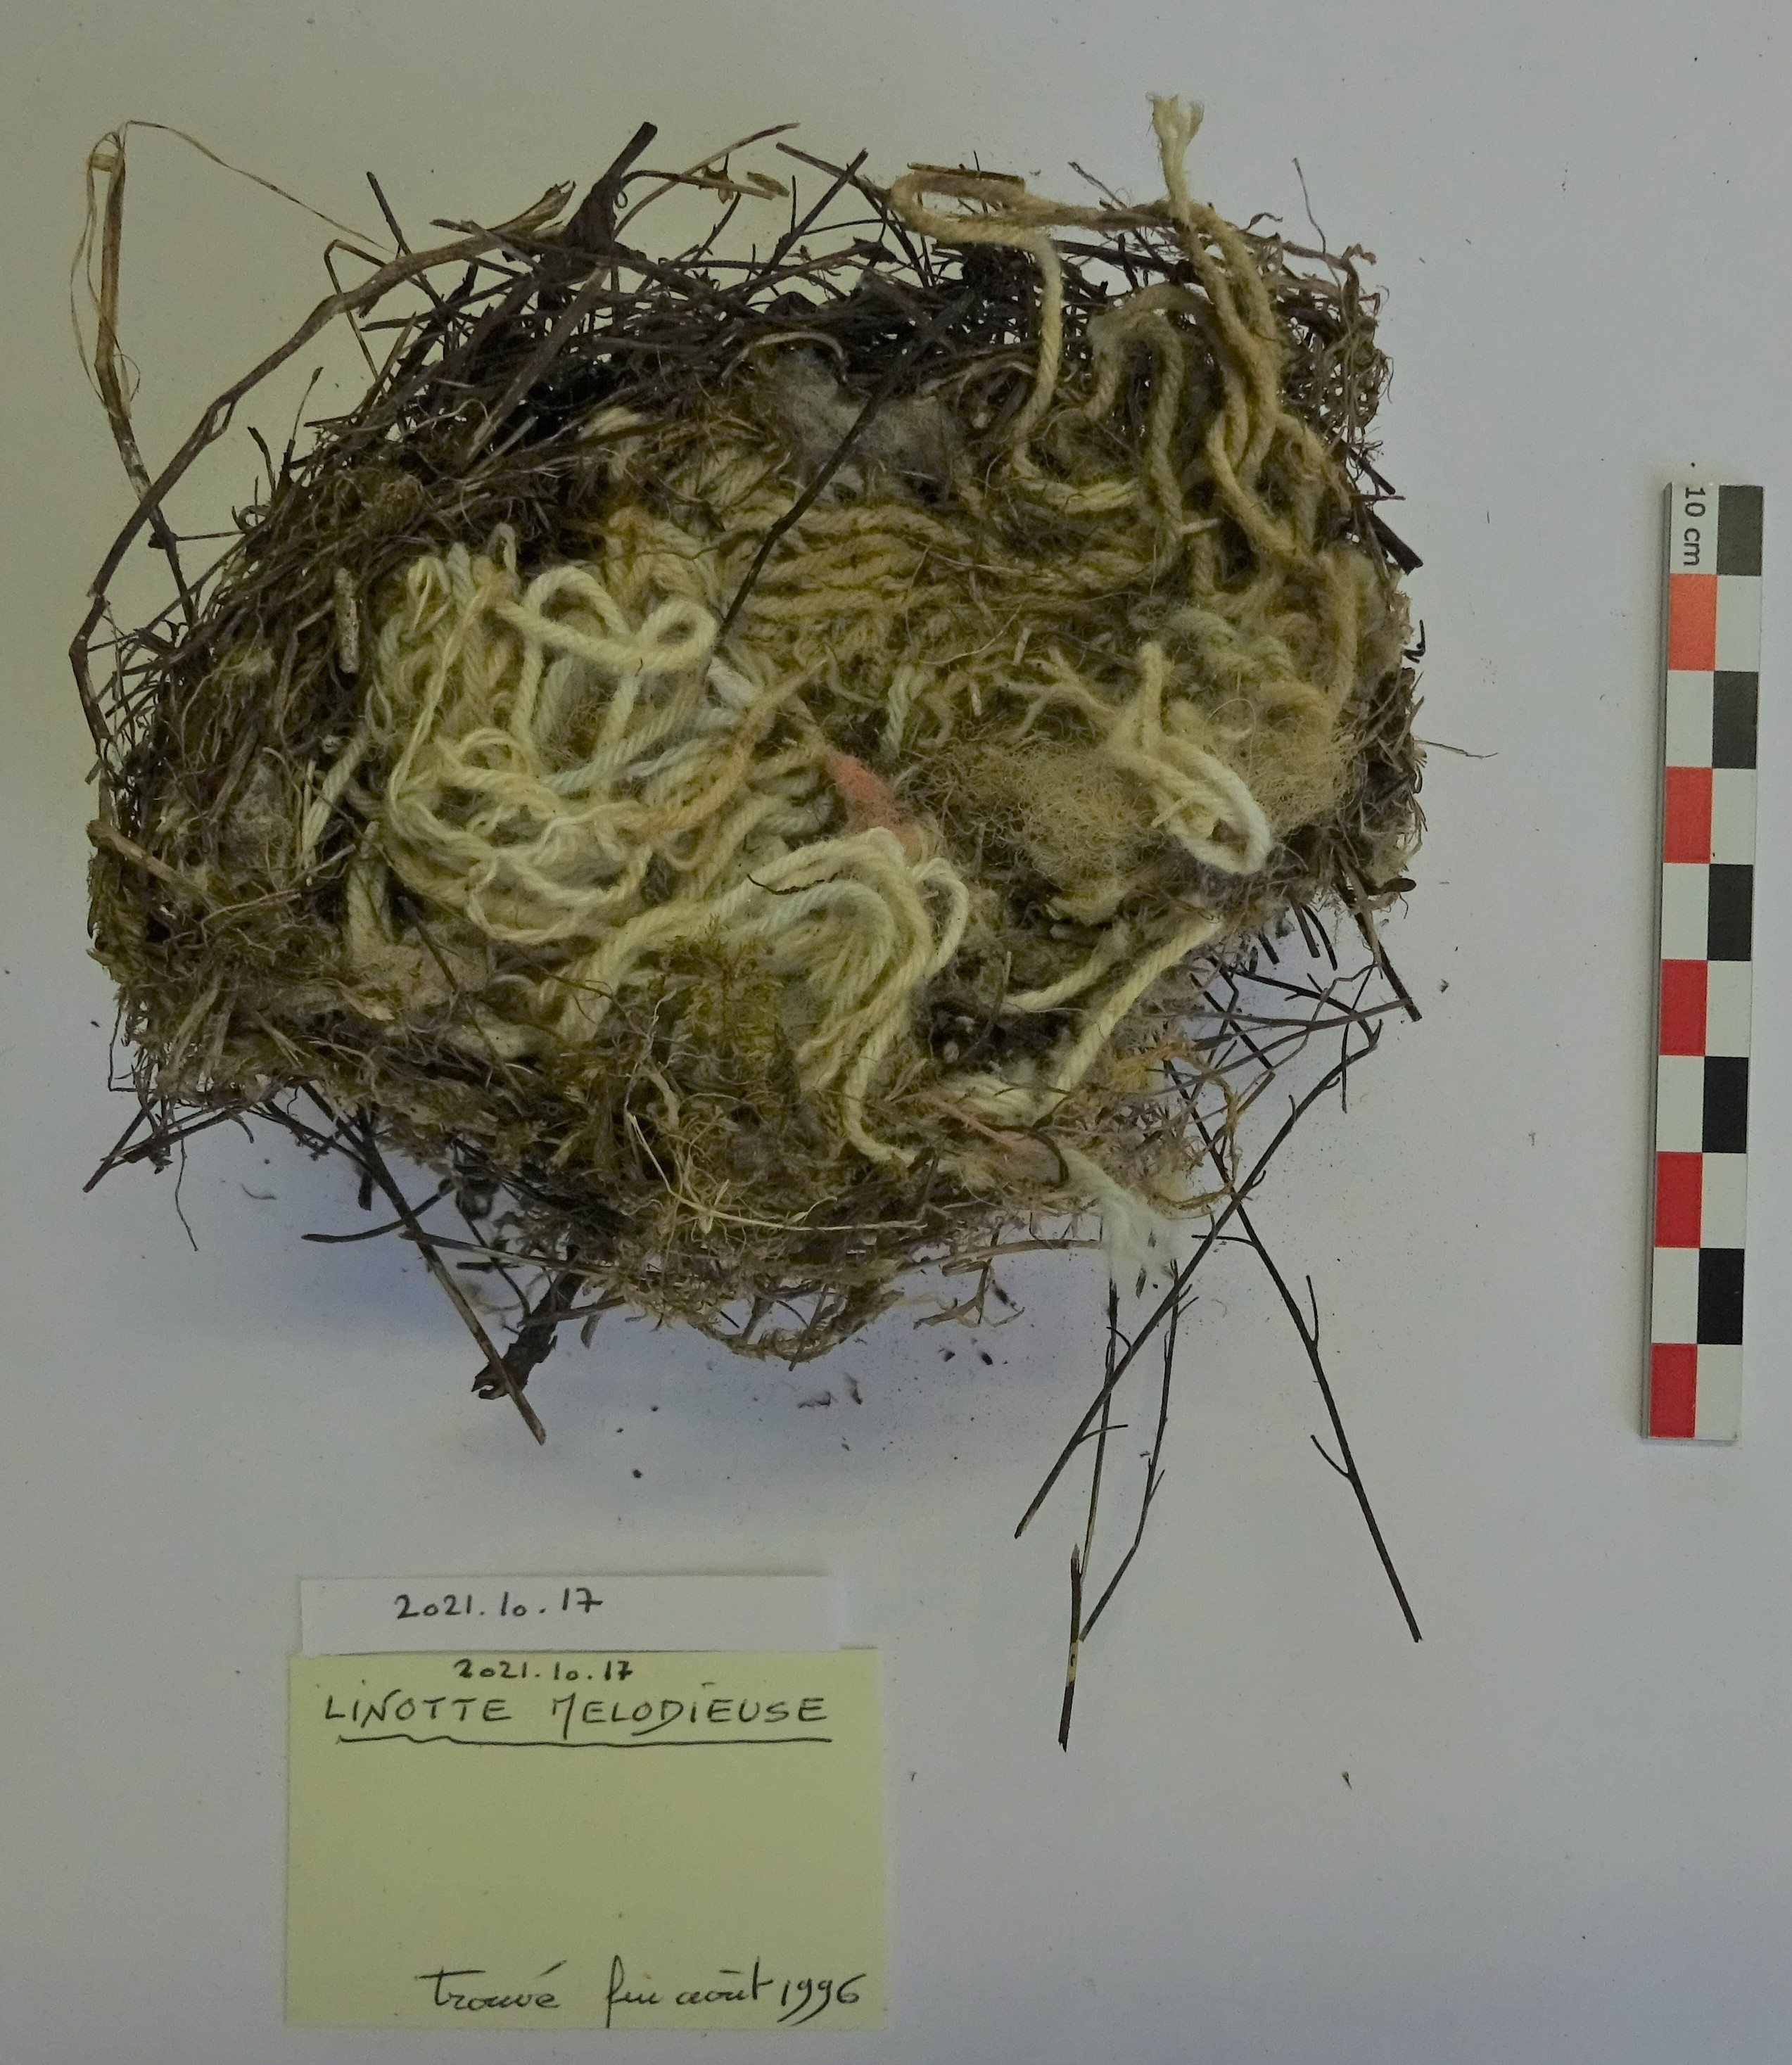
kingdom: Animalia
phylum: Chordata
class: Aves
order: Passeriformes
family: Fringillidae
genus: Linaria
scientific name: Linaria cannabina
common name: Common linnet
